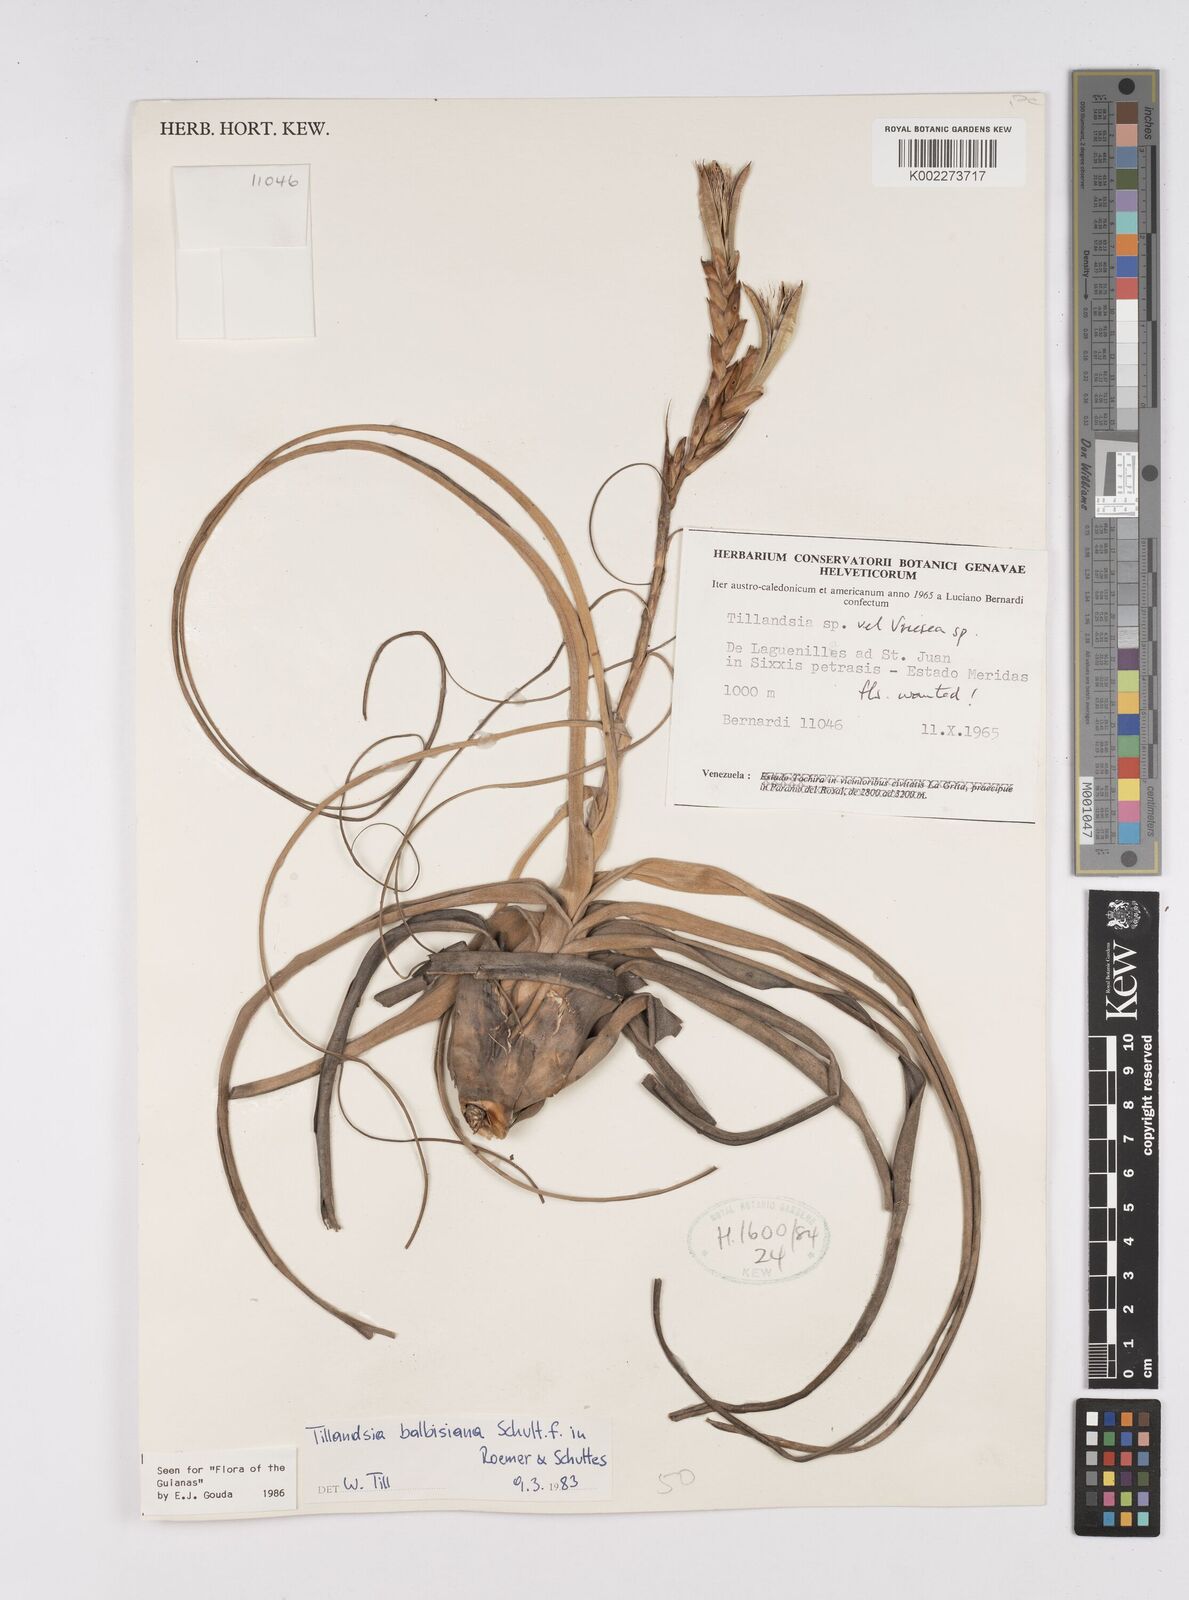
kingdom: Plantae
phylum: Tracheophyta
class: Liliopsida
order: Poales
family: Bromeliaceae
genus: Tillandsia
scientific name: Tillandsia balbisiana
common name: Northern needleleaf
